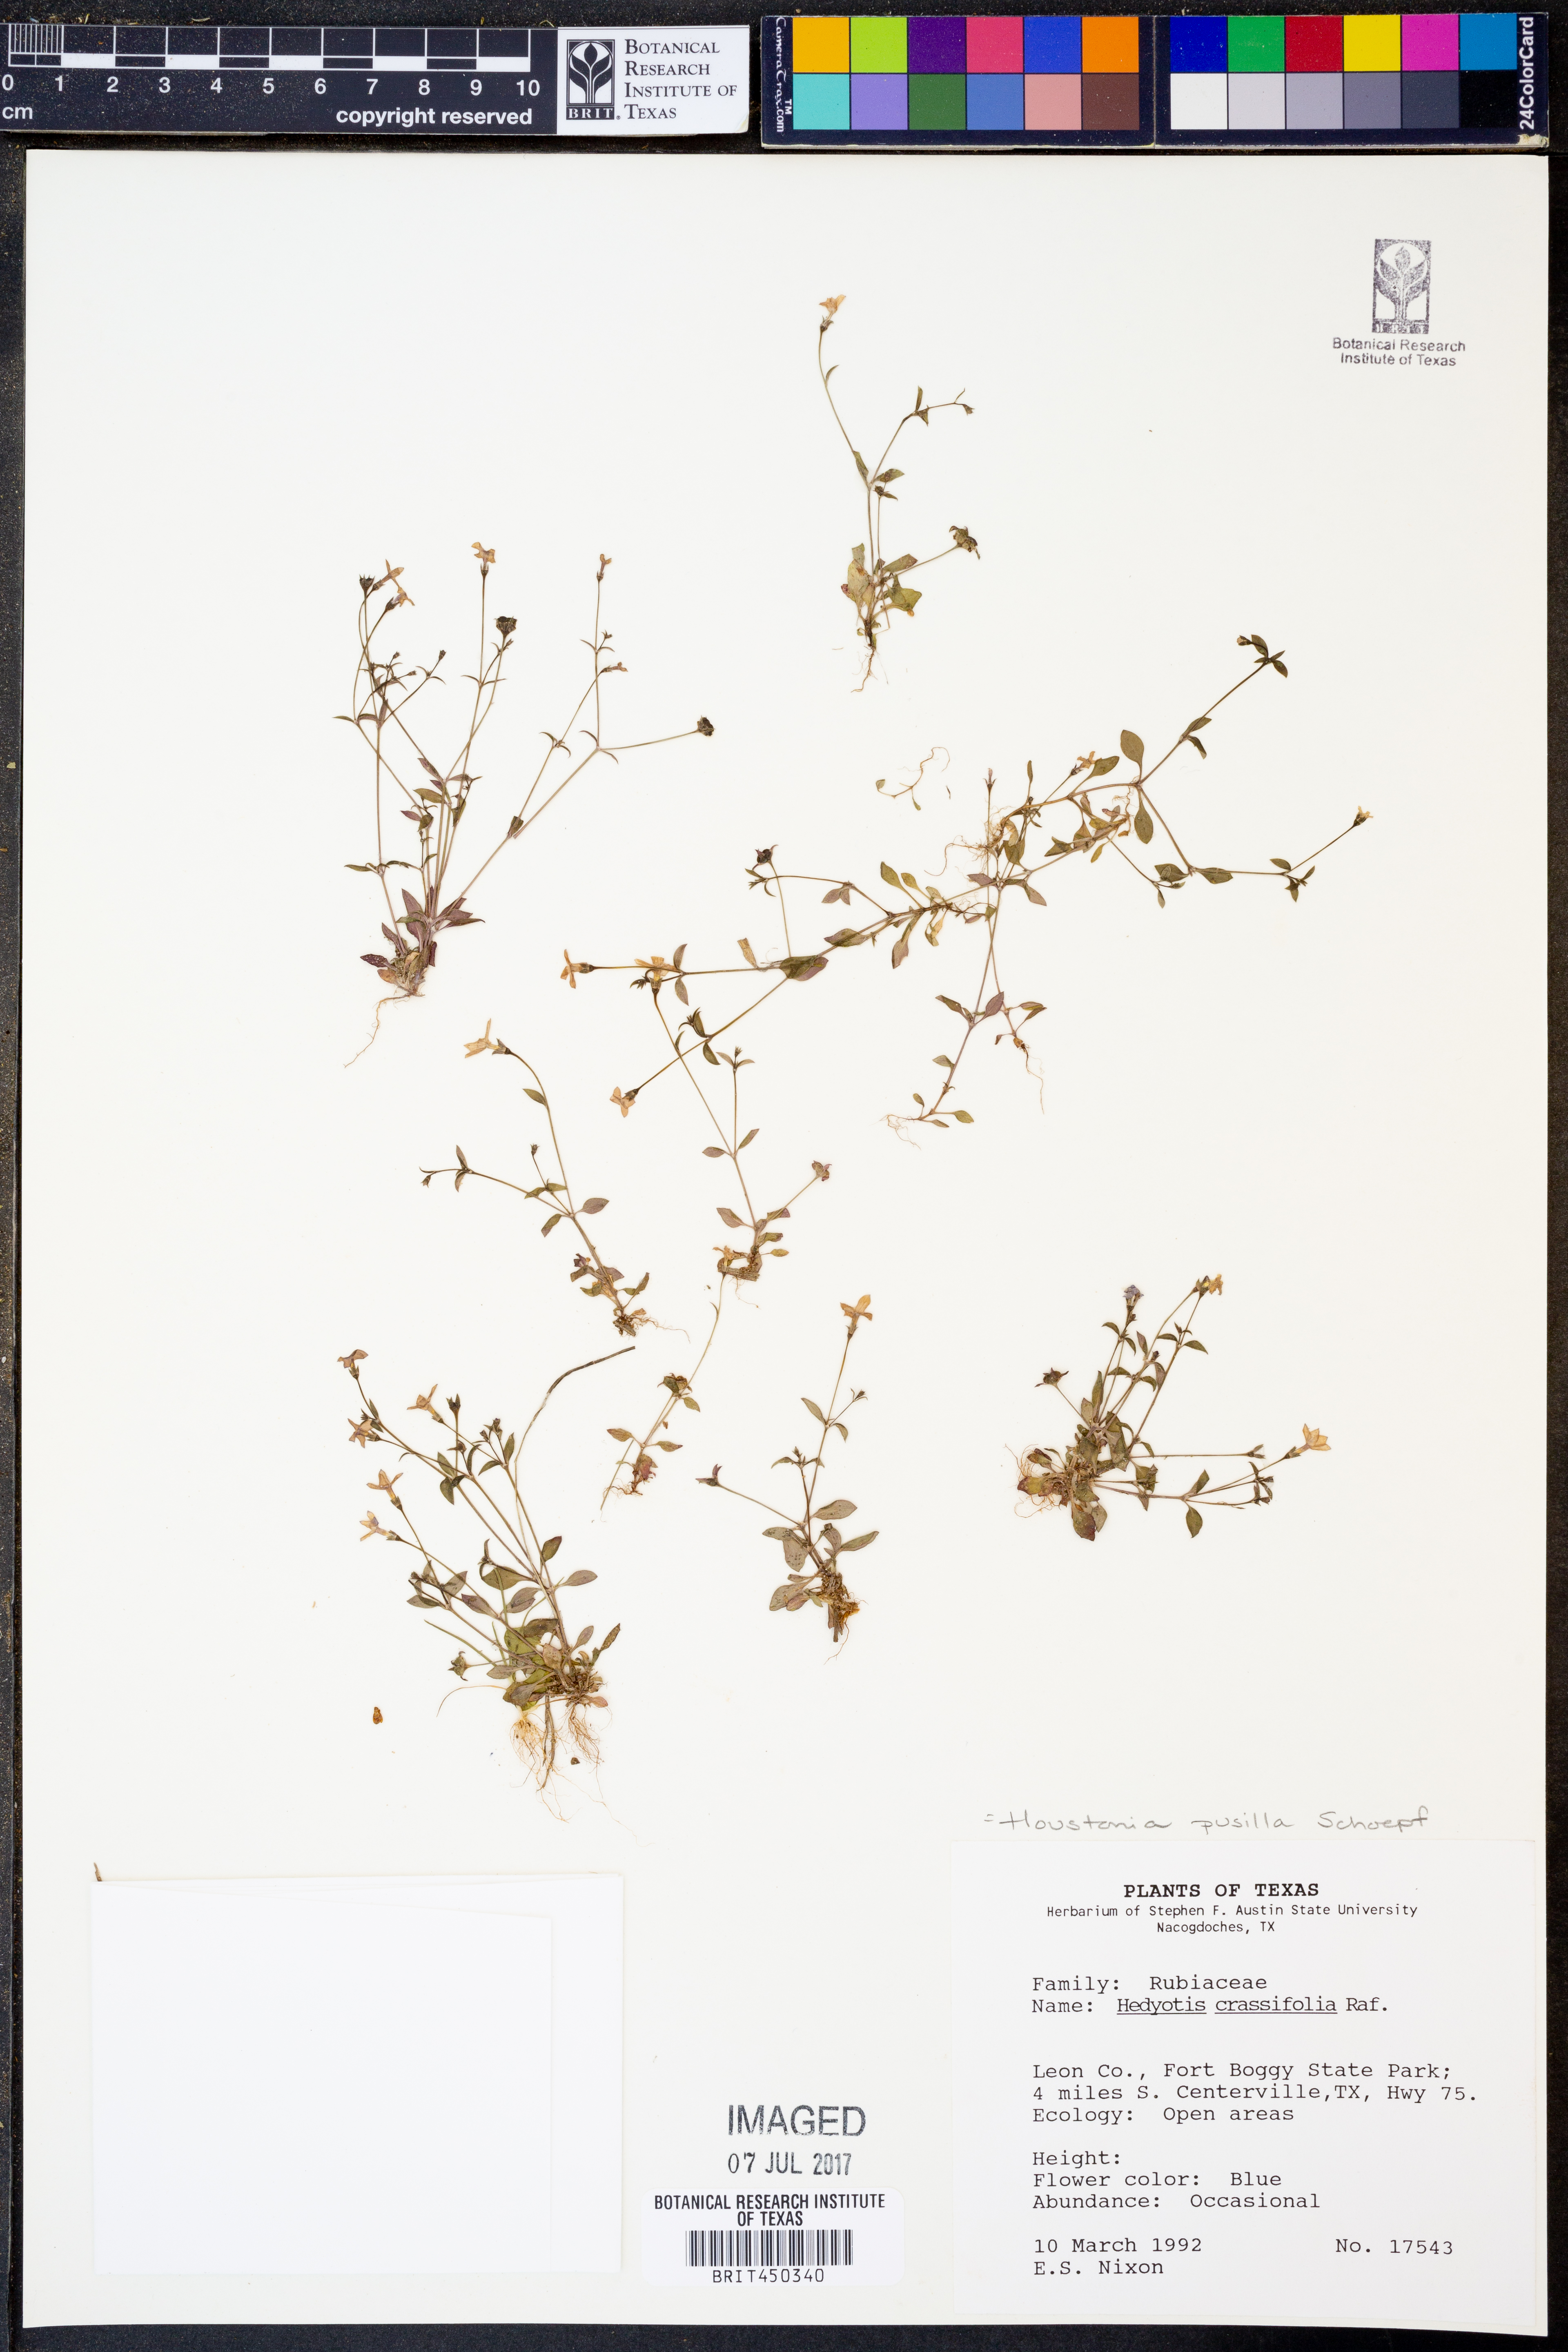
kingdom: Plantae
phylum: Tracheophyta
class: Magnoliopsida
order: Gentianales
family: Rubiaceae
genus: Houstonia
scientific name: Houstonia pusilla
